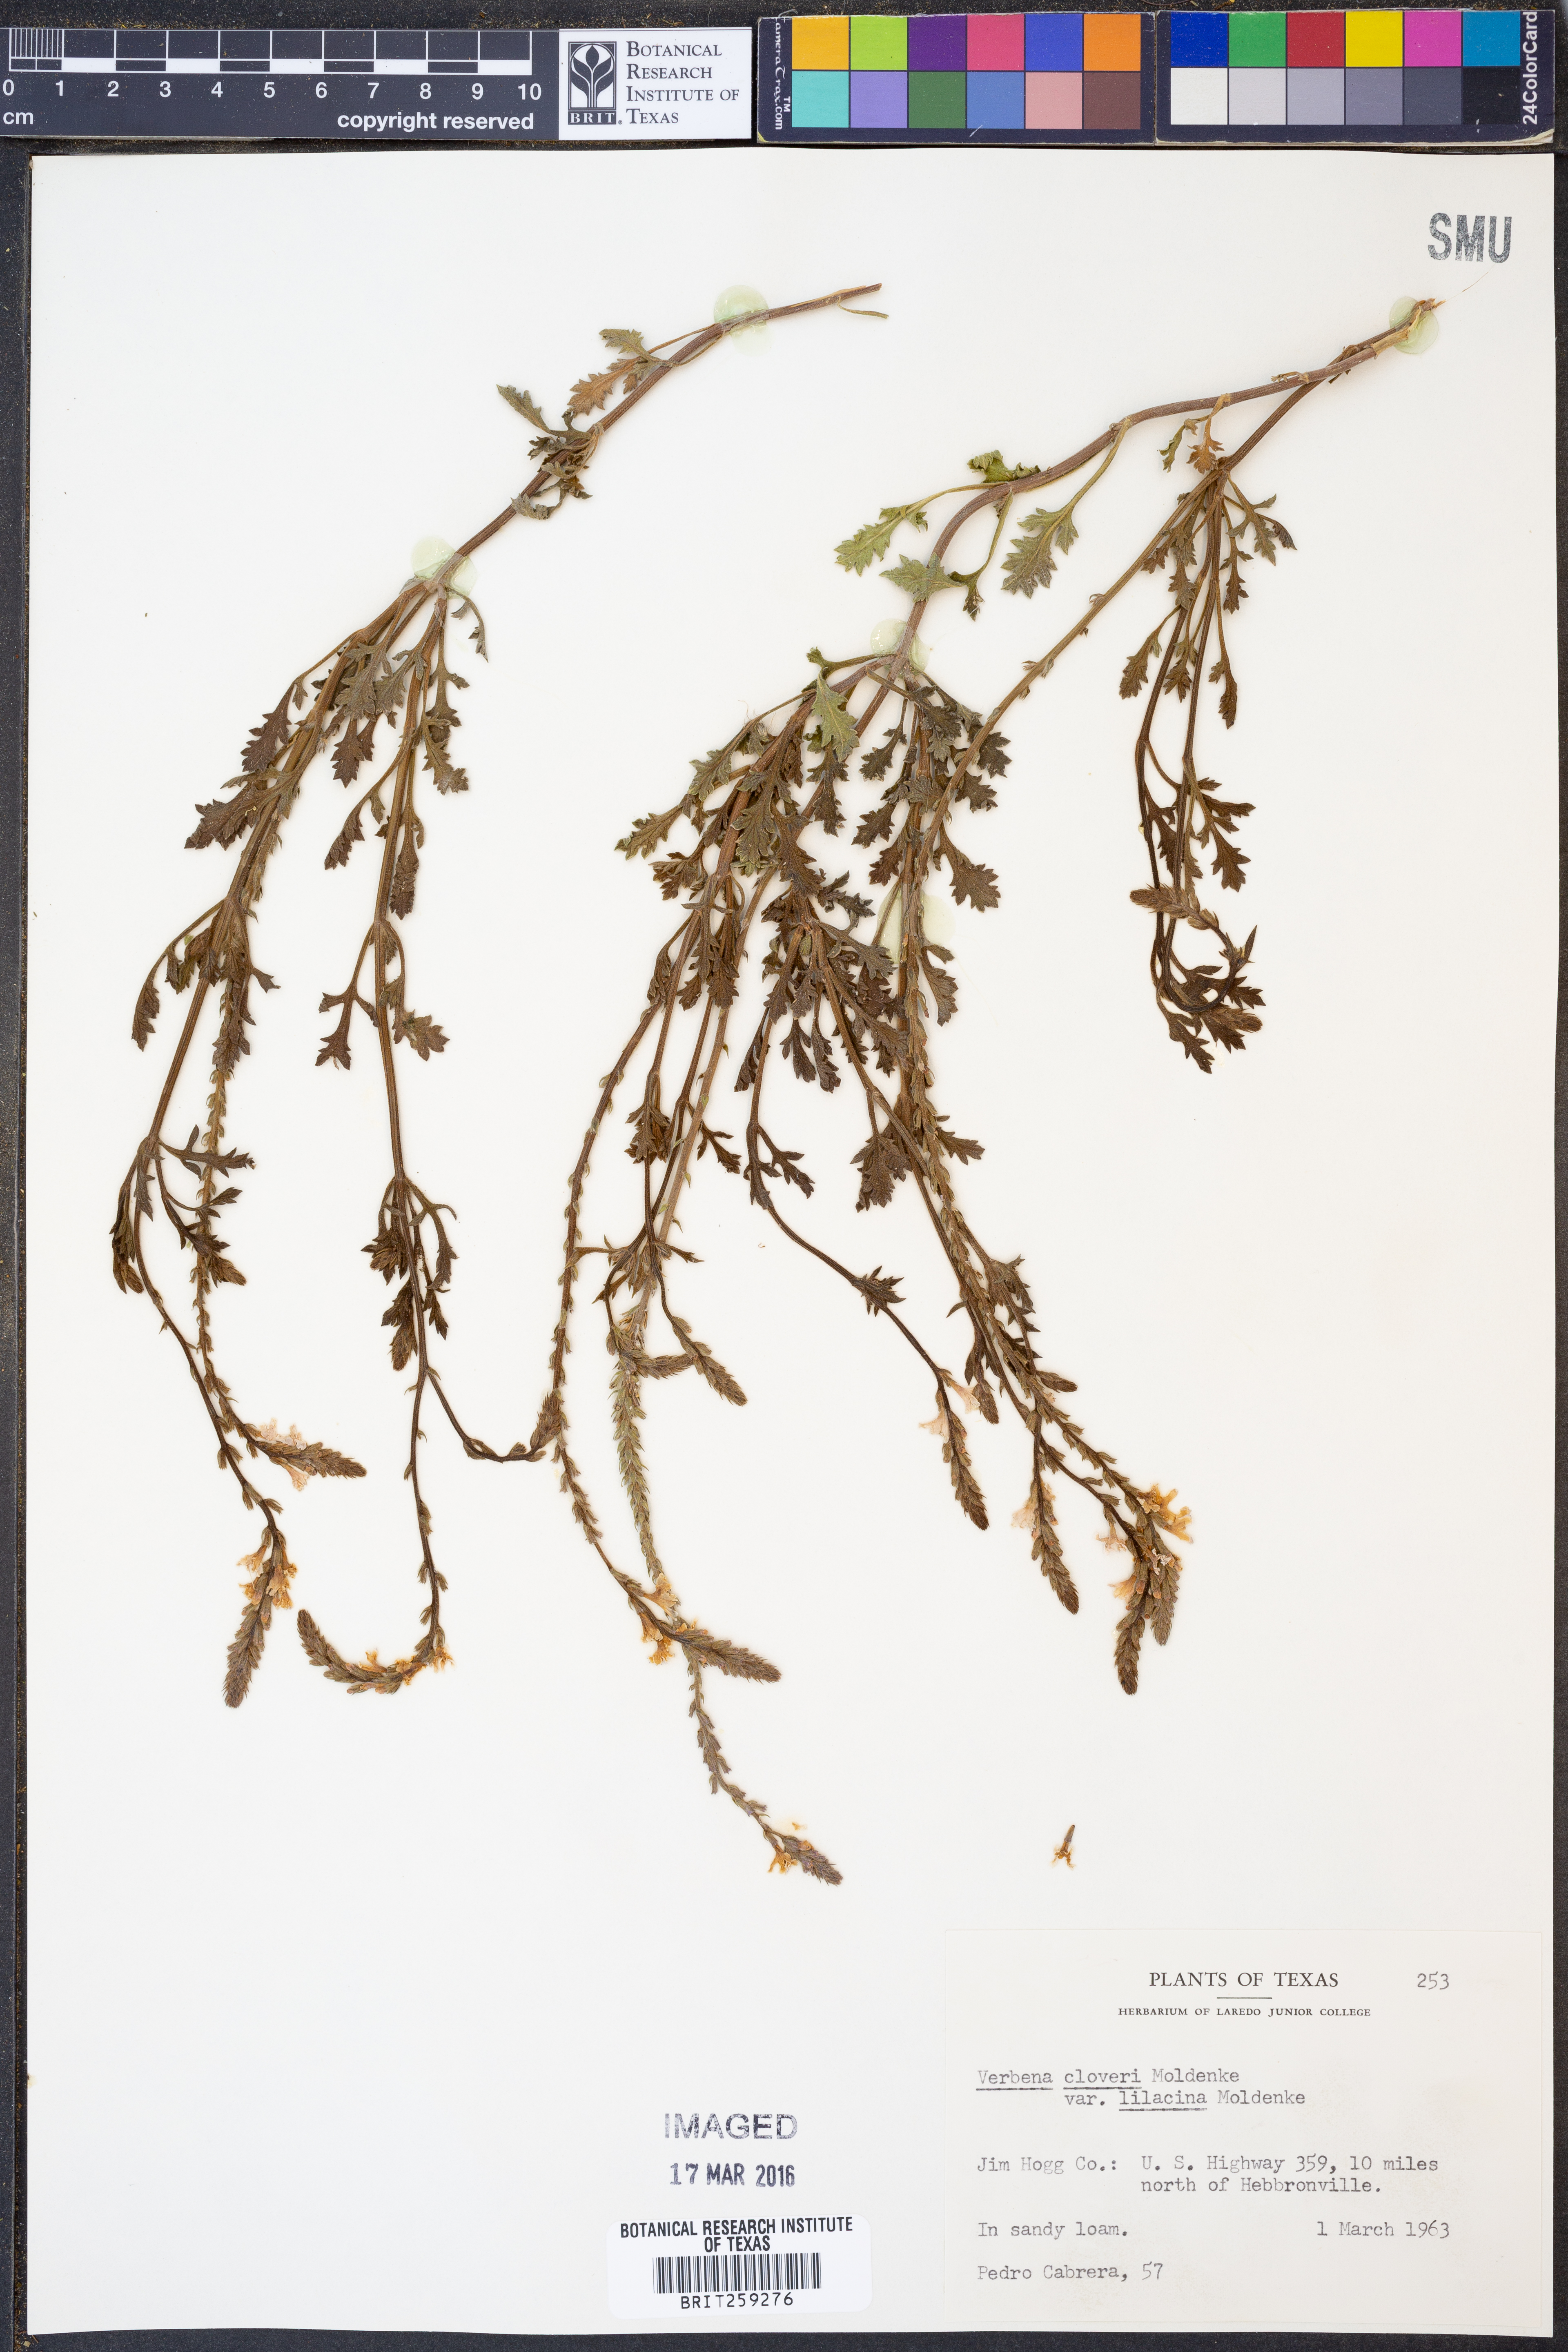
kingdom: Plantae
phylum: Tracheophyta
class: Magnoliopsida
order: Lamiales
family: Verbenaceae
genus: Verbena
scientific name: Verbena cloverae
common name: Clover's vervain
